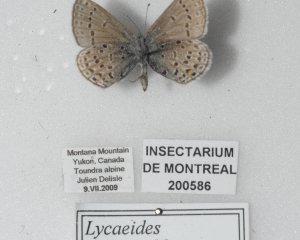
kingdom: Animalia
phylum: Arthropoda
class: Insecta
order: Lepidoptera
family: Lycaenidae
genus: Lycaeides
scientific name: Lycaeides idas
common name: Northern Blue
